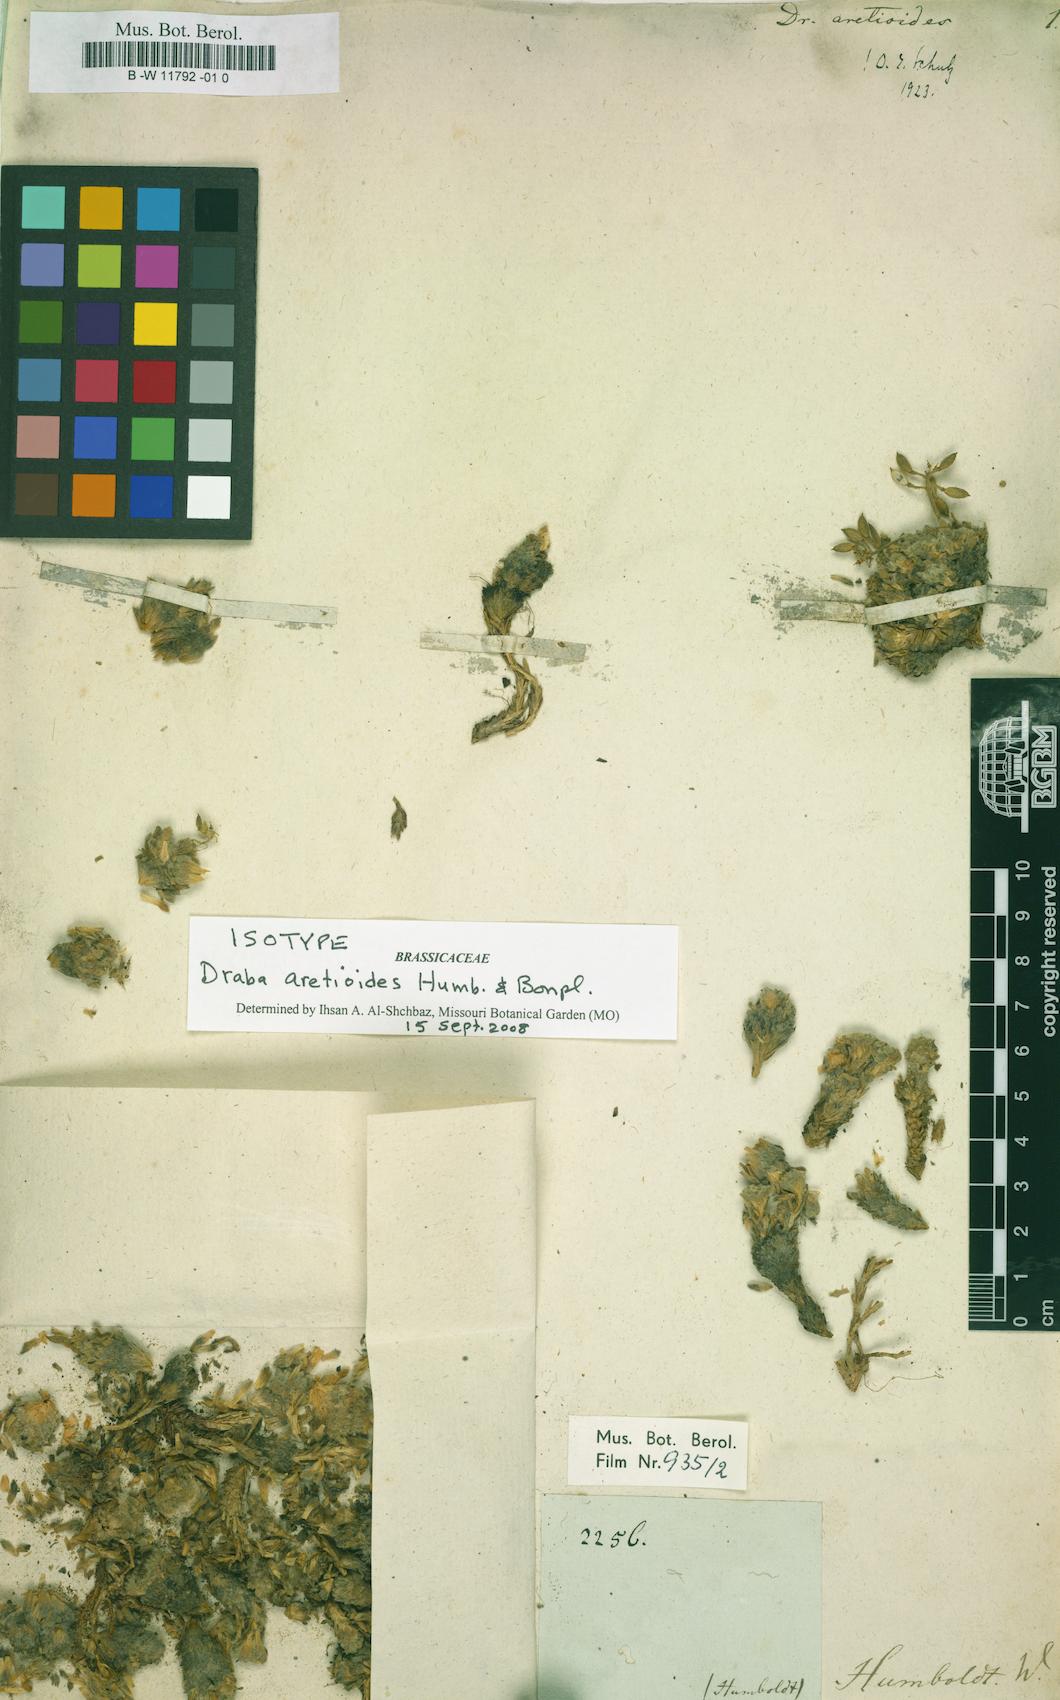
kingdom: Plantae
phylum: Tracheophyta
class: Magnoliopsida
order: Brassicales
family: Brassicaceae
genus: Draba
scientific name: Draba aretioides
